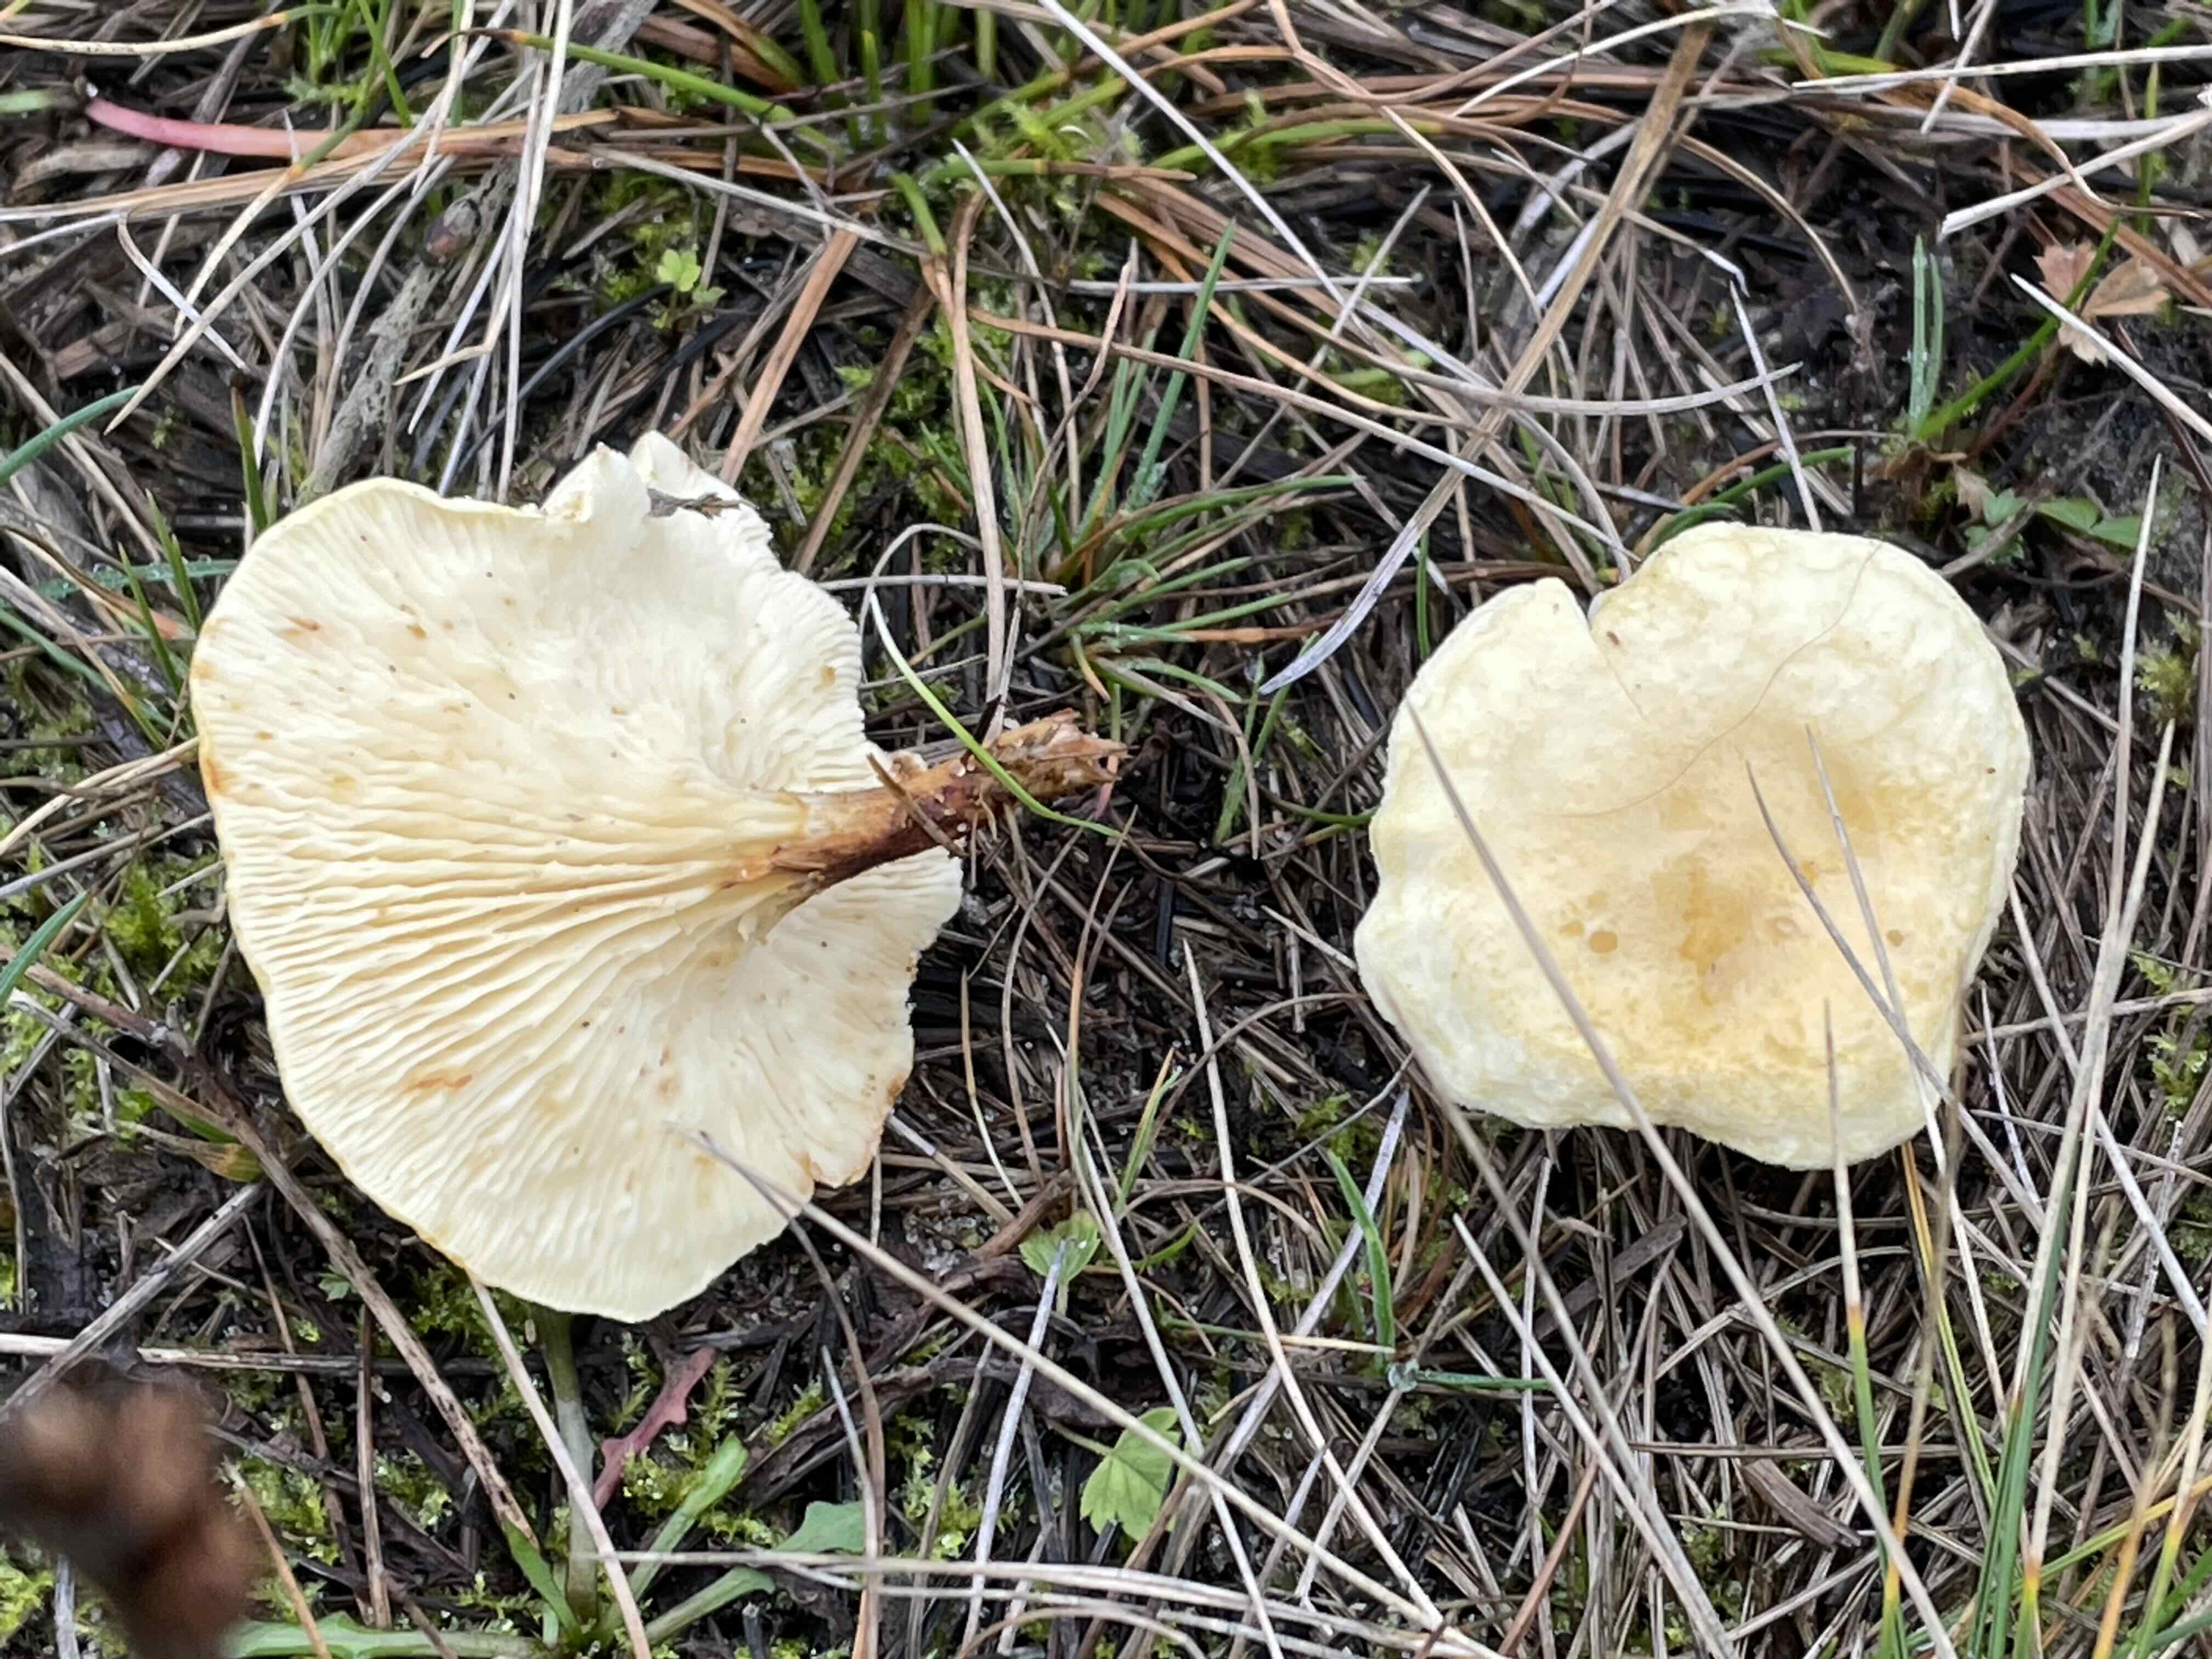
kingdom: Fungi
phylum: Basidiomycota
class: Agaricomycetes
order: Boletales
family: Hygrophoropsidaceae
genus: Hygrophoropsis
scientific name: Hygrophoropsis pallida
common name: bleg orangekantarel
